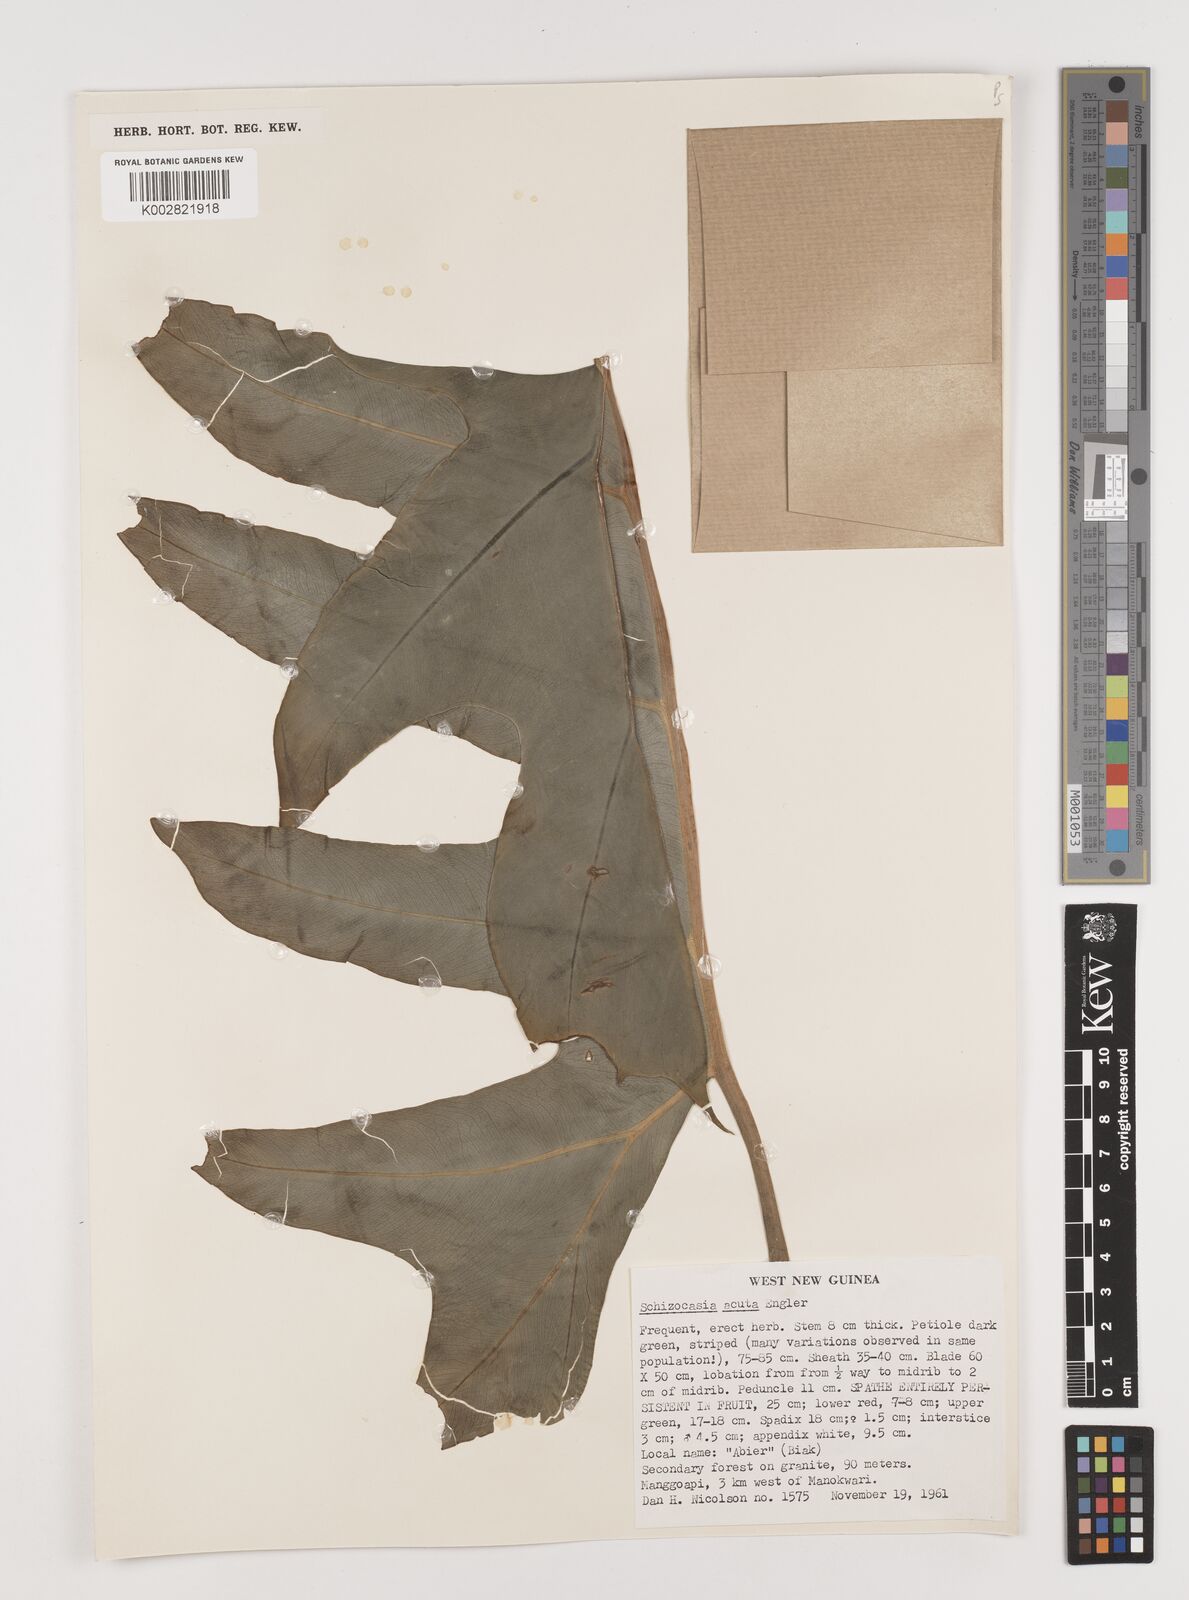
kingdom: Plantae
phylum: Tracheophyta
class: Liliopsida
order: Alismatales
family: Araceae
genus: Alocasia
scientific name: Alocasia brancifolia
